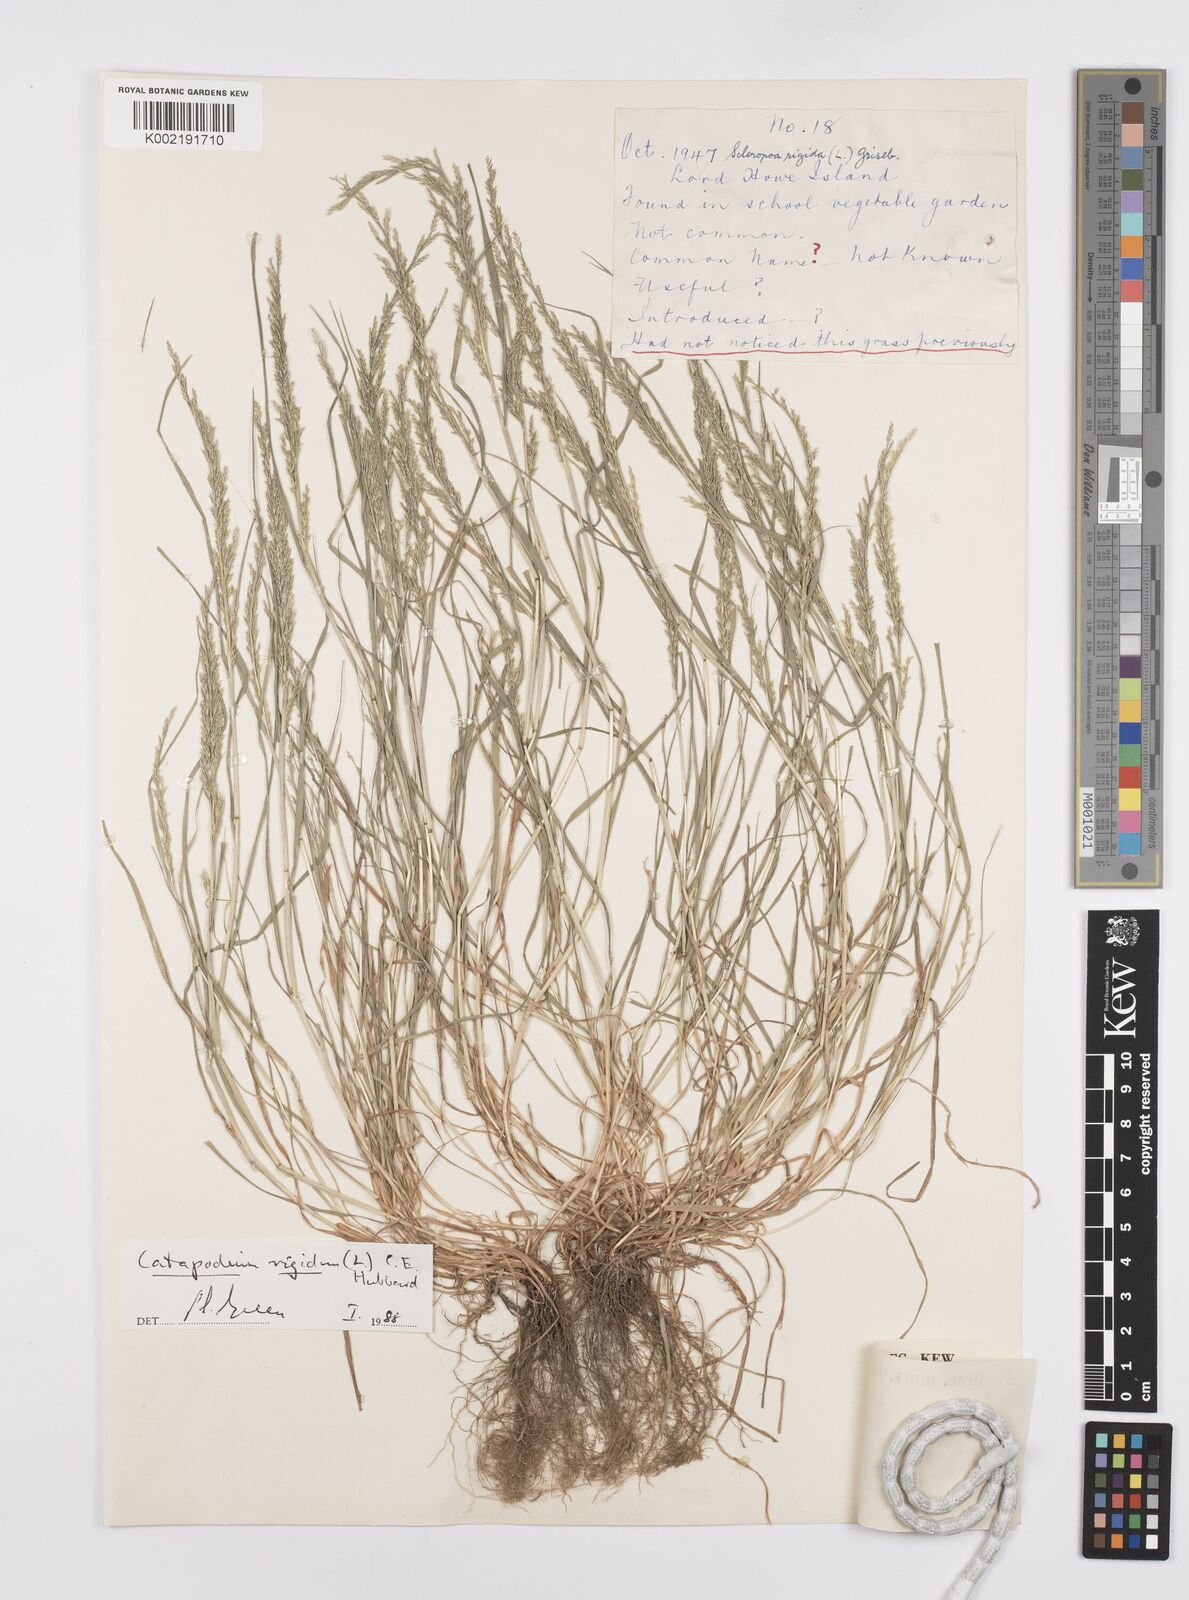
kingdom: Plantae
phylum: Tracheophyta
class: Liliopsida
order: Poales
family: Poaceae
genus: Catapodium
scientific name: Catapodium rigidum
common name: Fern-grass
